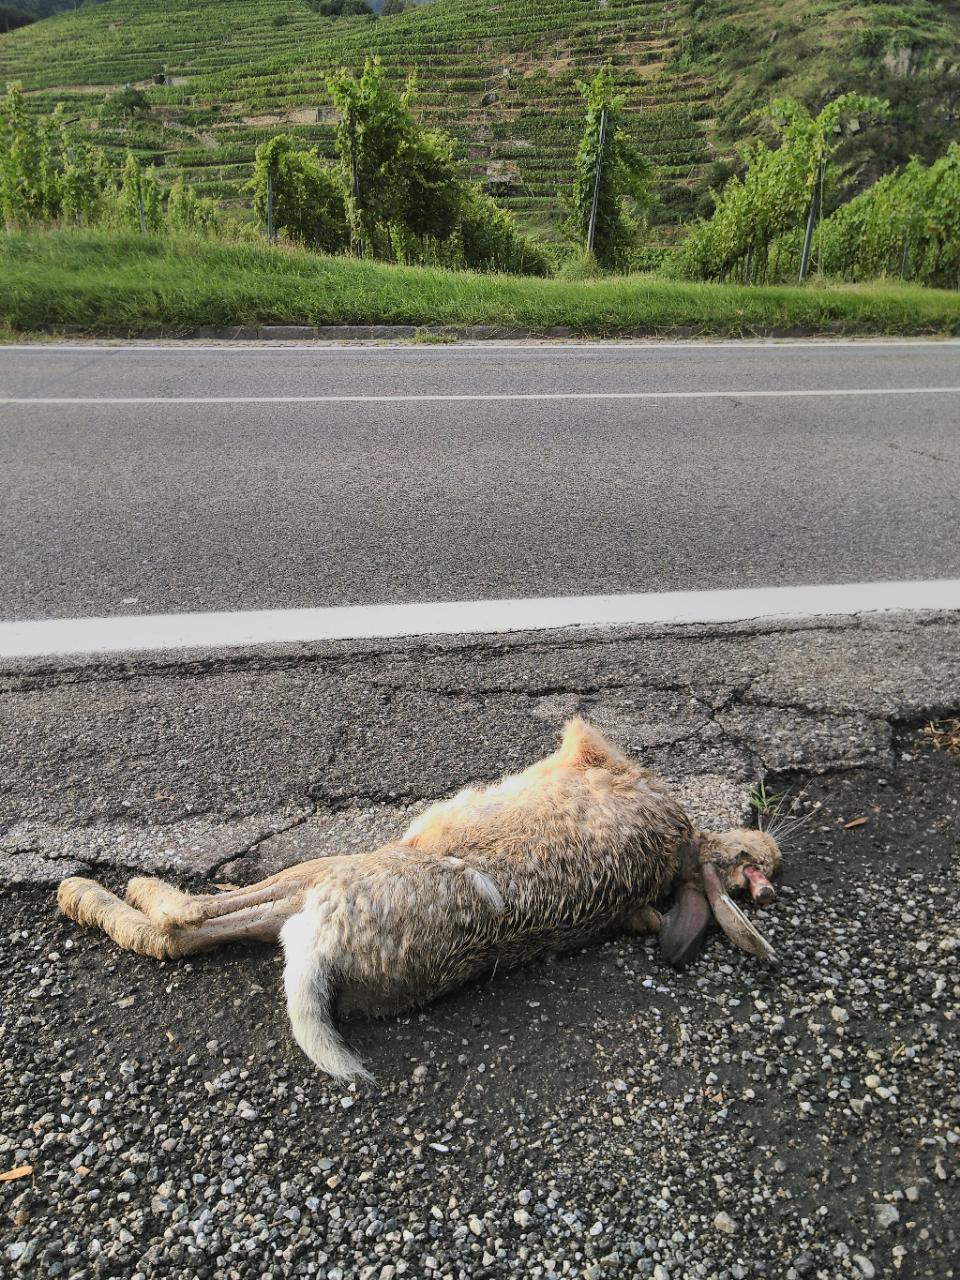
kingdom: Animalia
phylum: Chordata
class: Mammalia
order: Lagomorpha
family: Leporidae
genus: Lepus
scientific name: Lepus europaeus
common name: European hare
